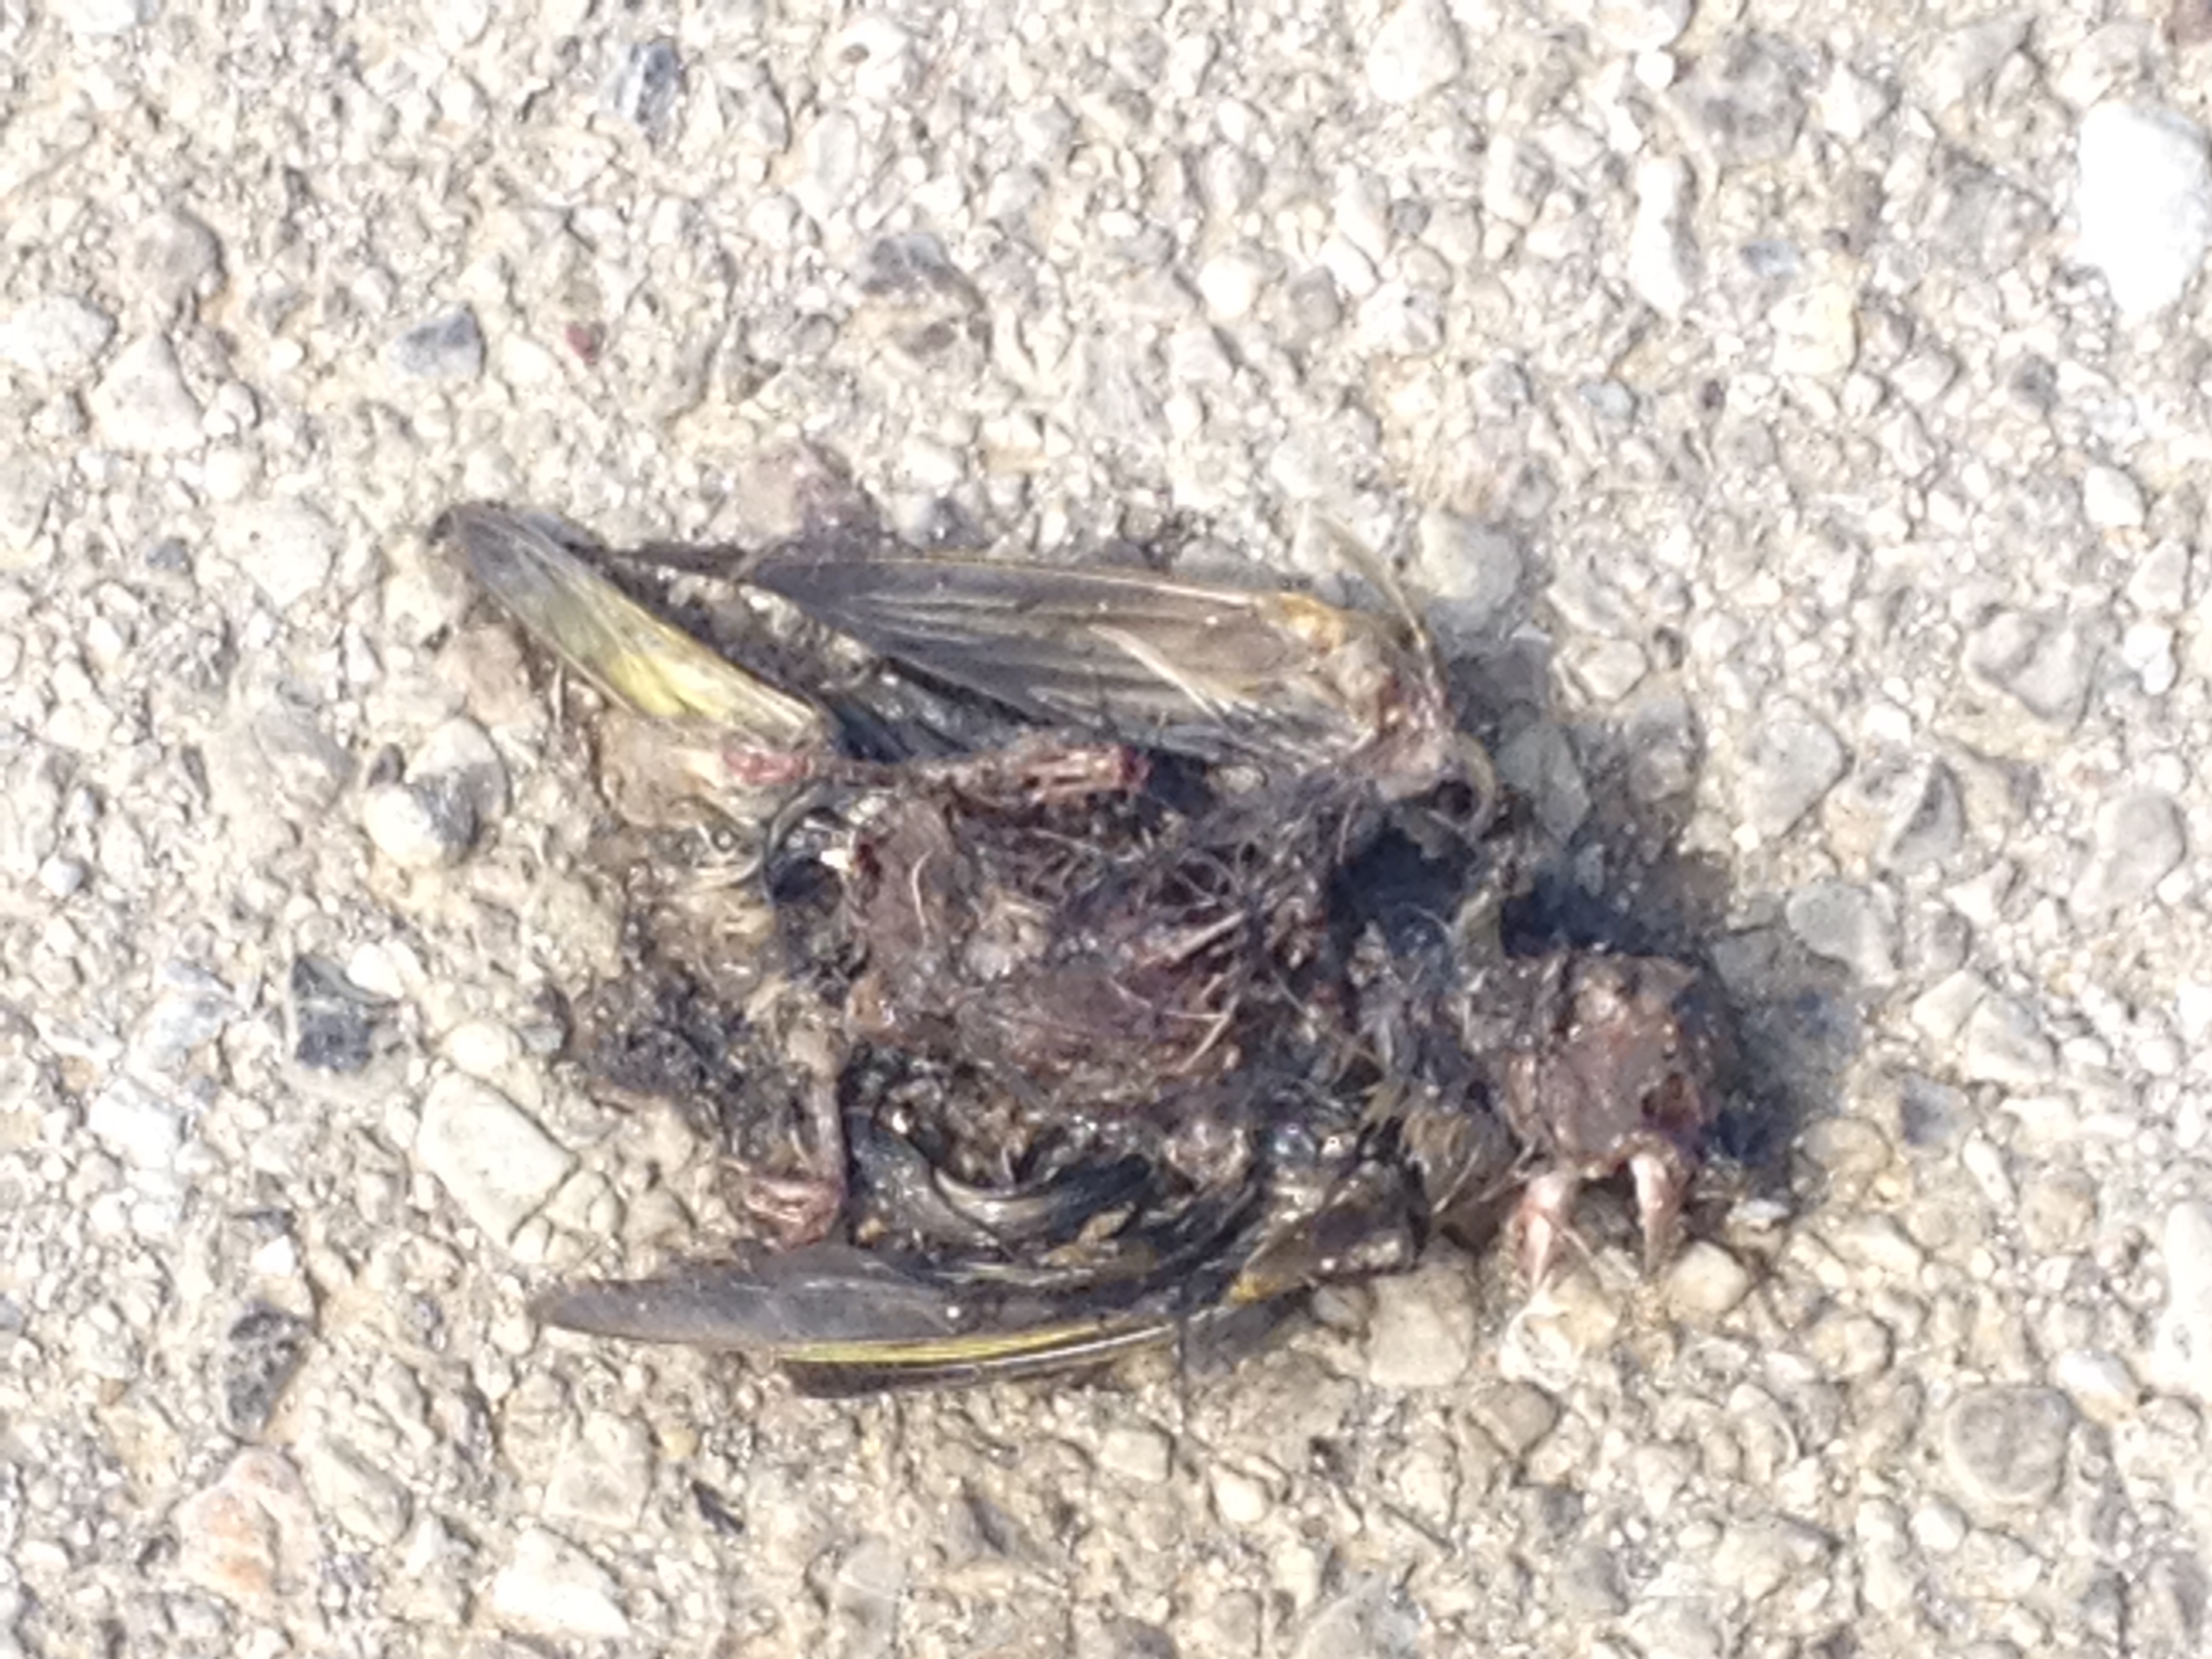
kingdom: Animalia
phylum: Chordata
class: Aves
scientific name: Aves
